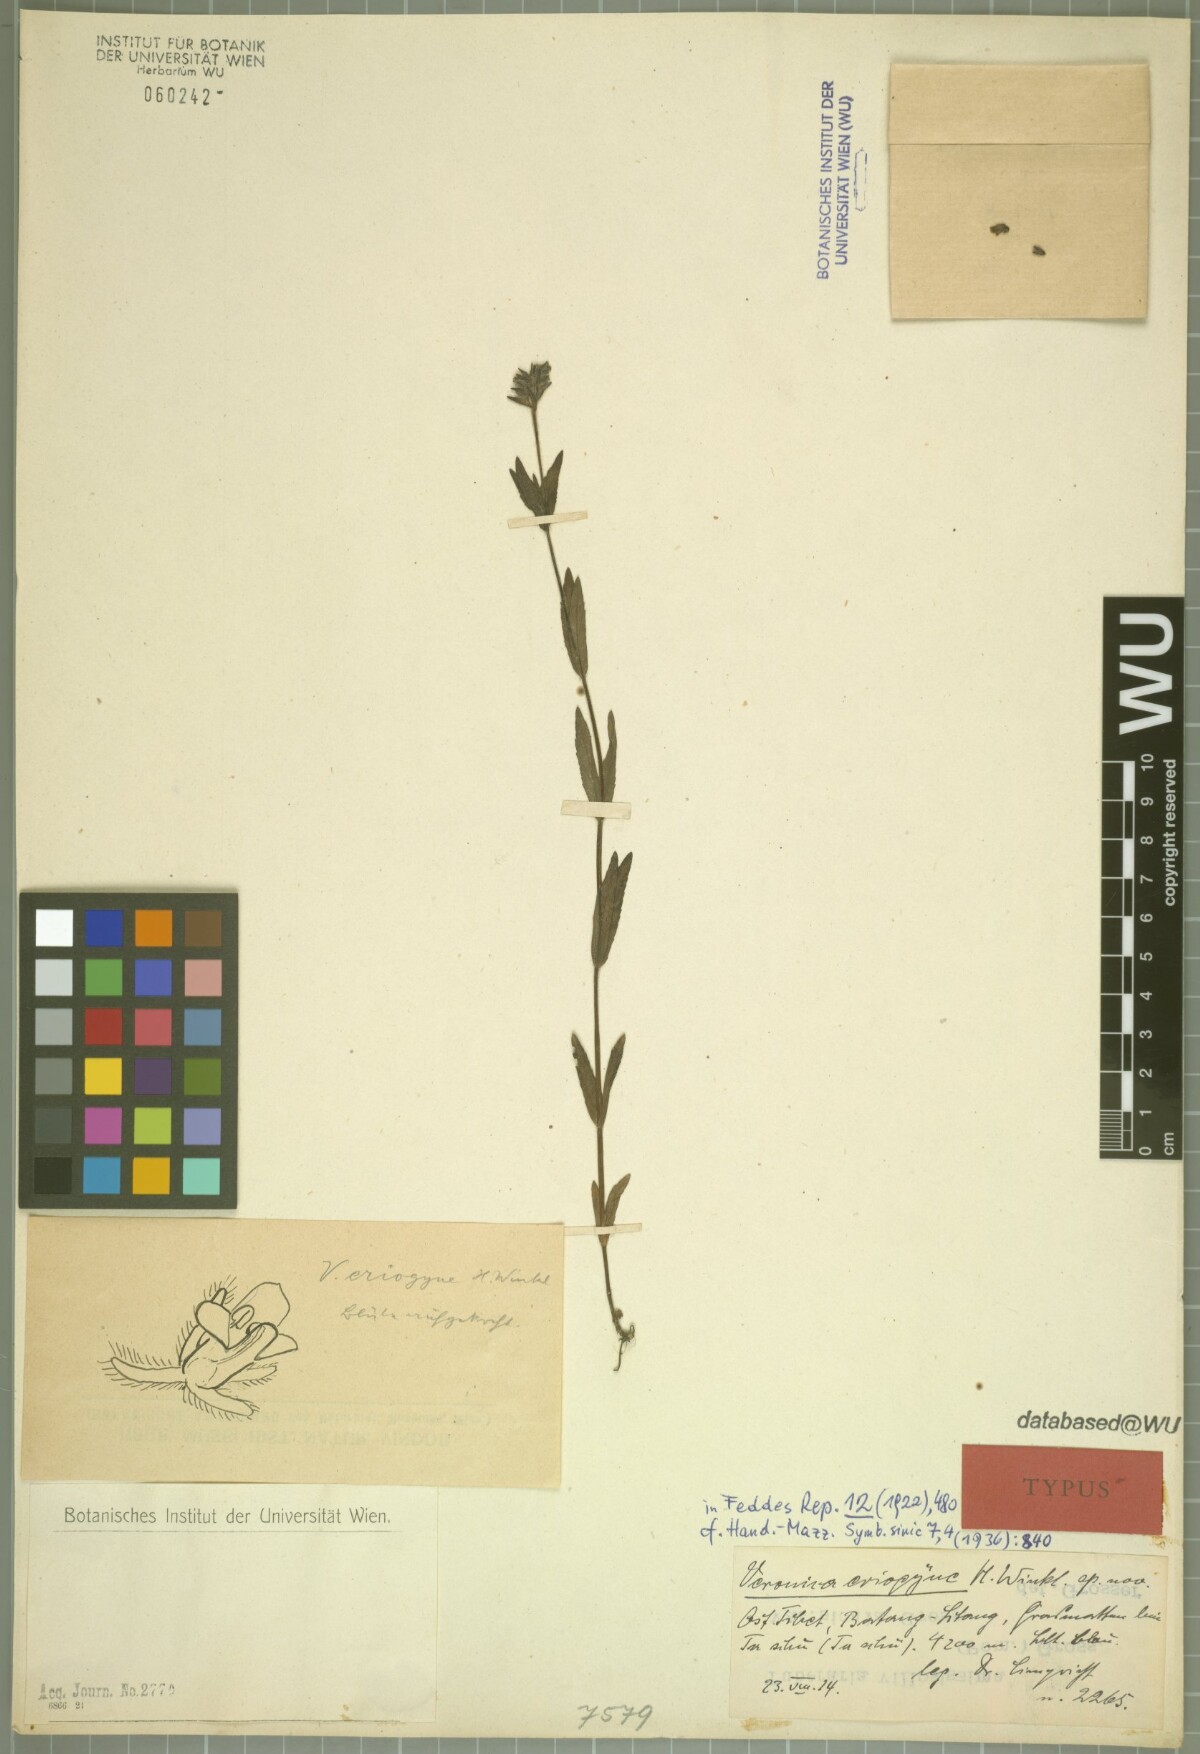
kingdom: Plantae
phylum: Tracheophyta
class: Magnoliopsida
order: Lamiales
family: Plantaginaceae
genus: Veronica
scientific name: Veronica eriogyne
